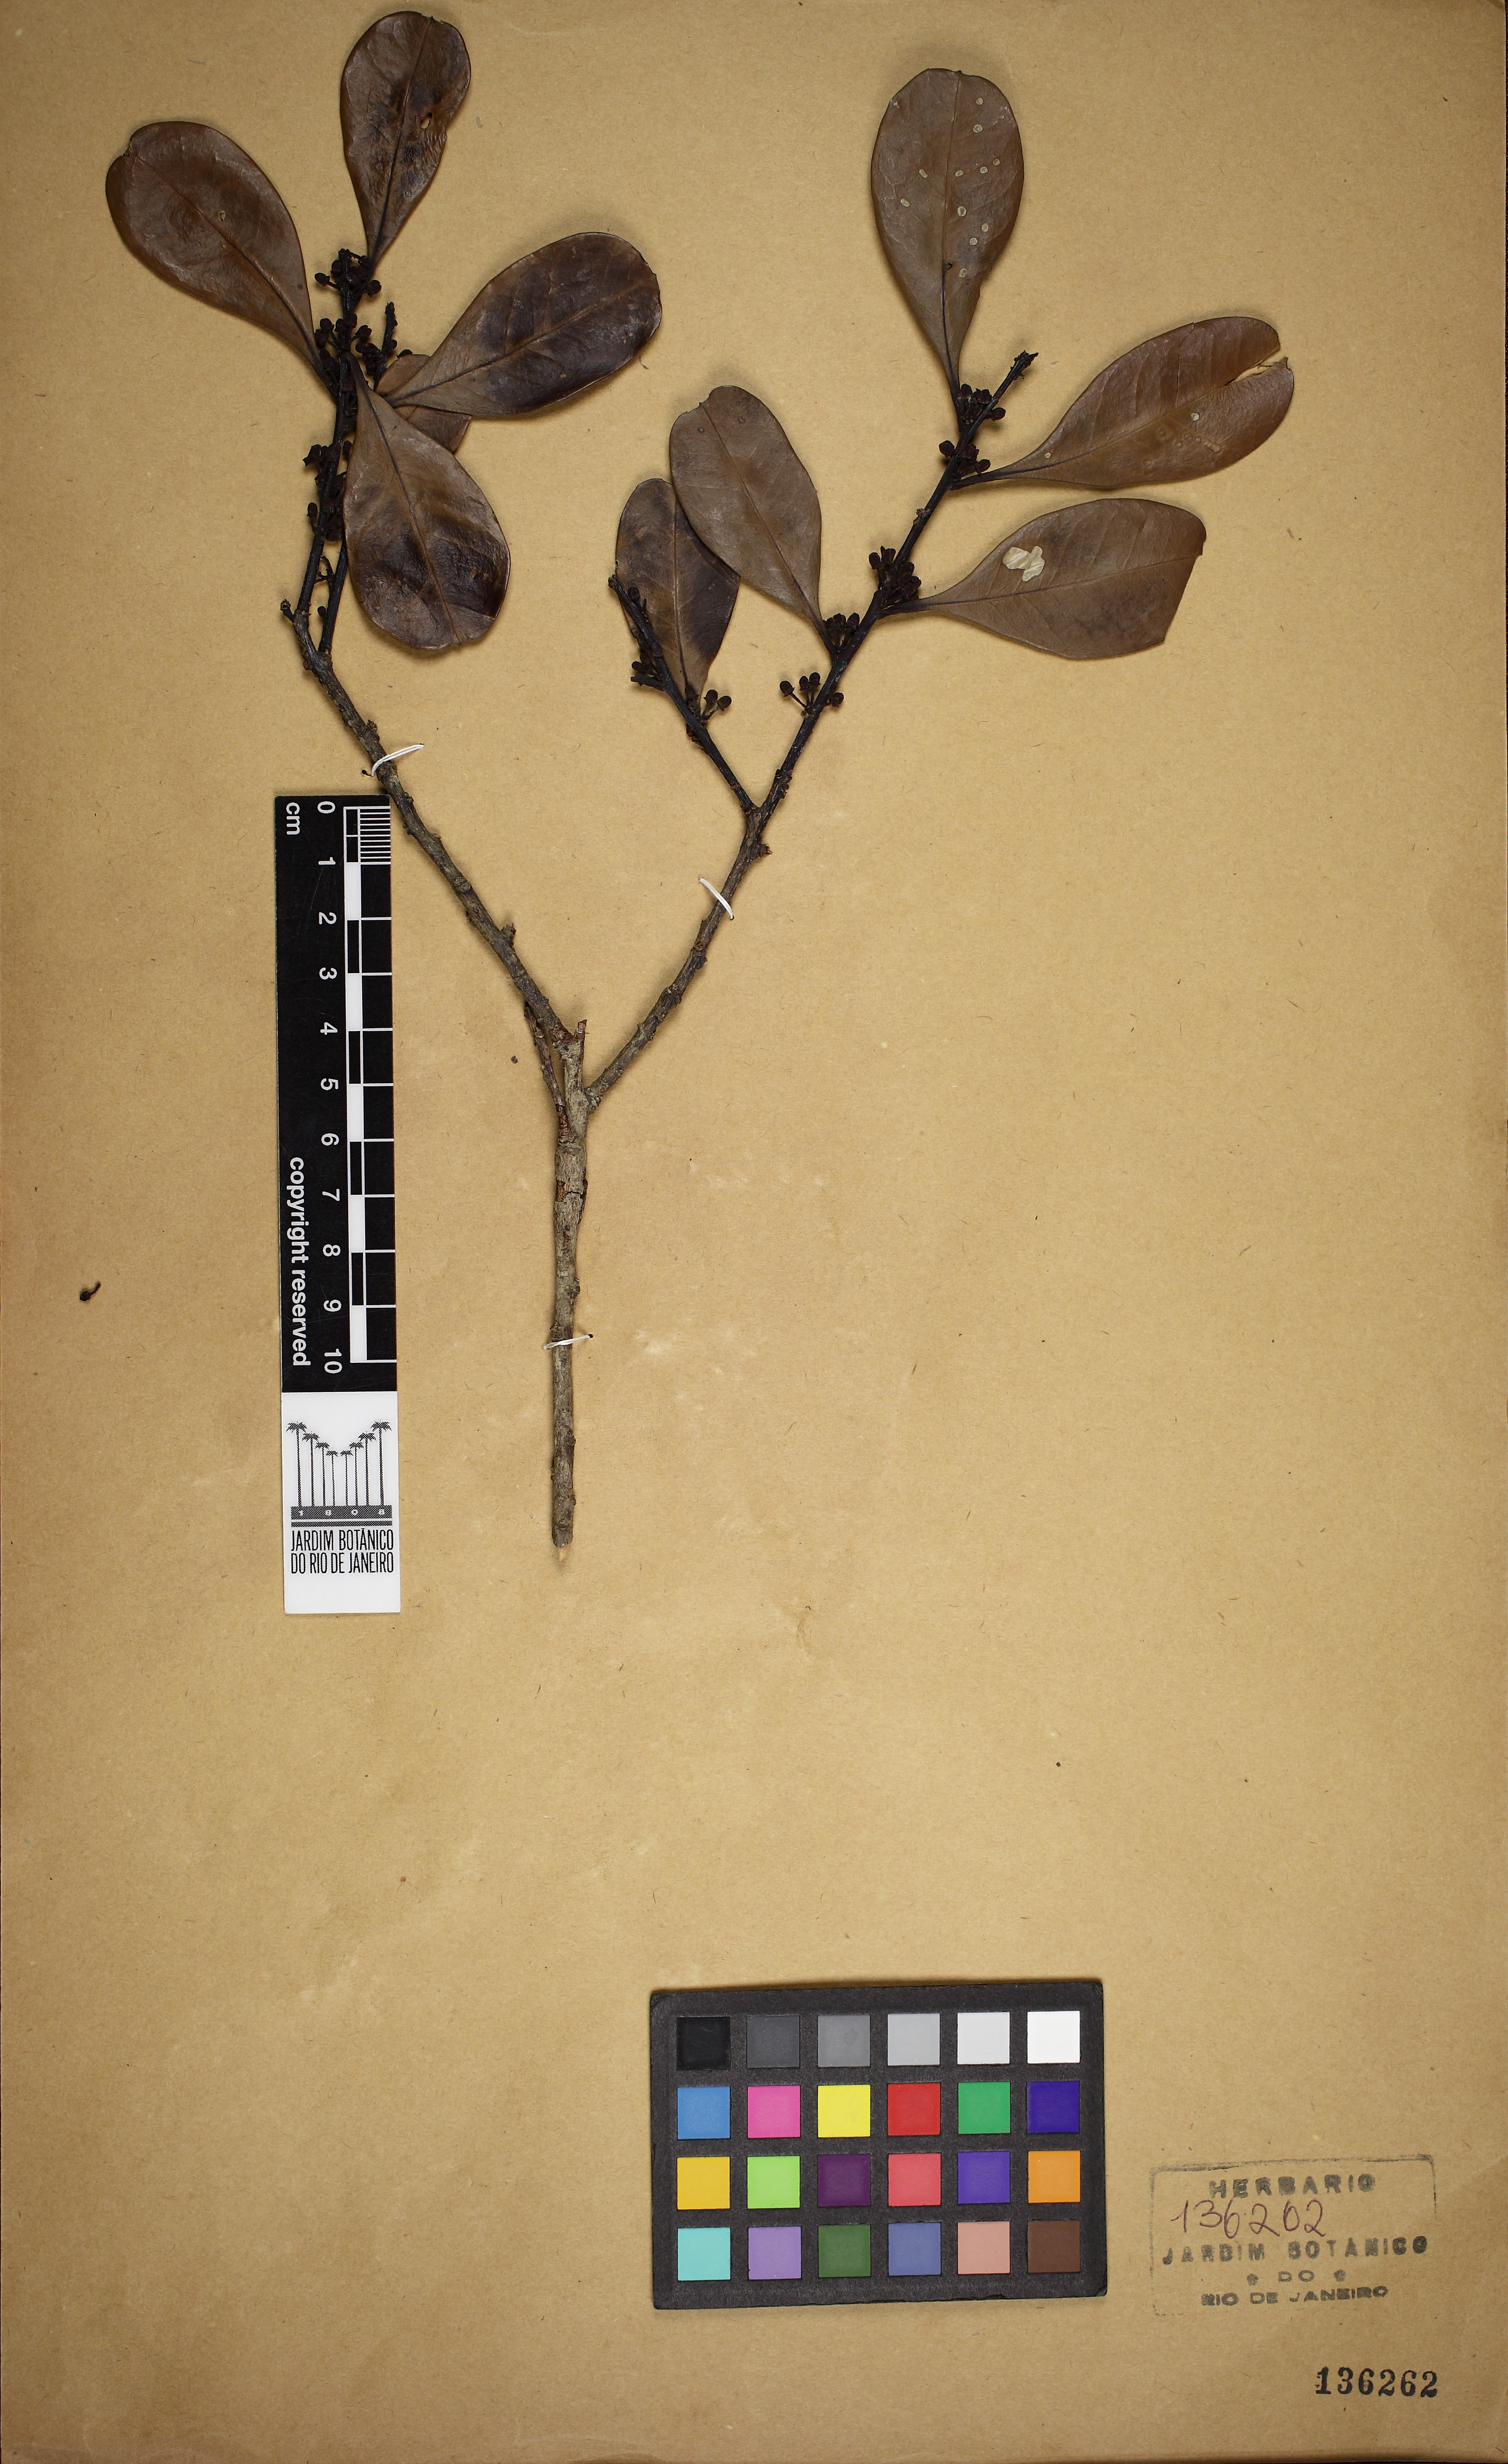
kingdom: Plantae
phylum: Tracheophyta
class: Magnoliopsida
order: Aquifoliales
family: Aquifoliaceae
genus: Ilex
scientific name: Ilex theezans
